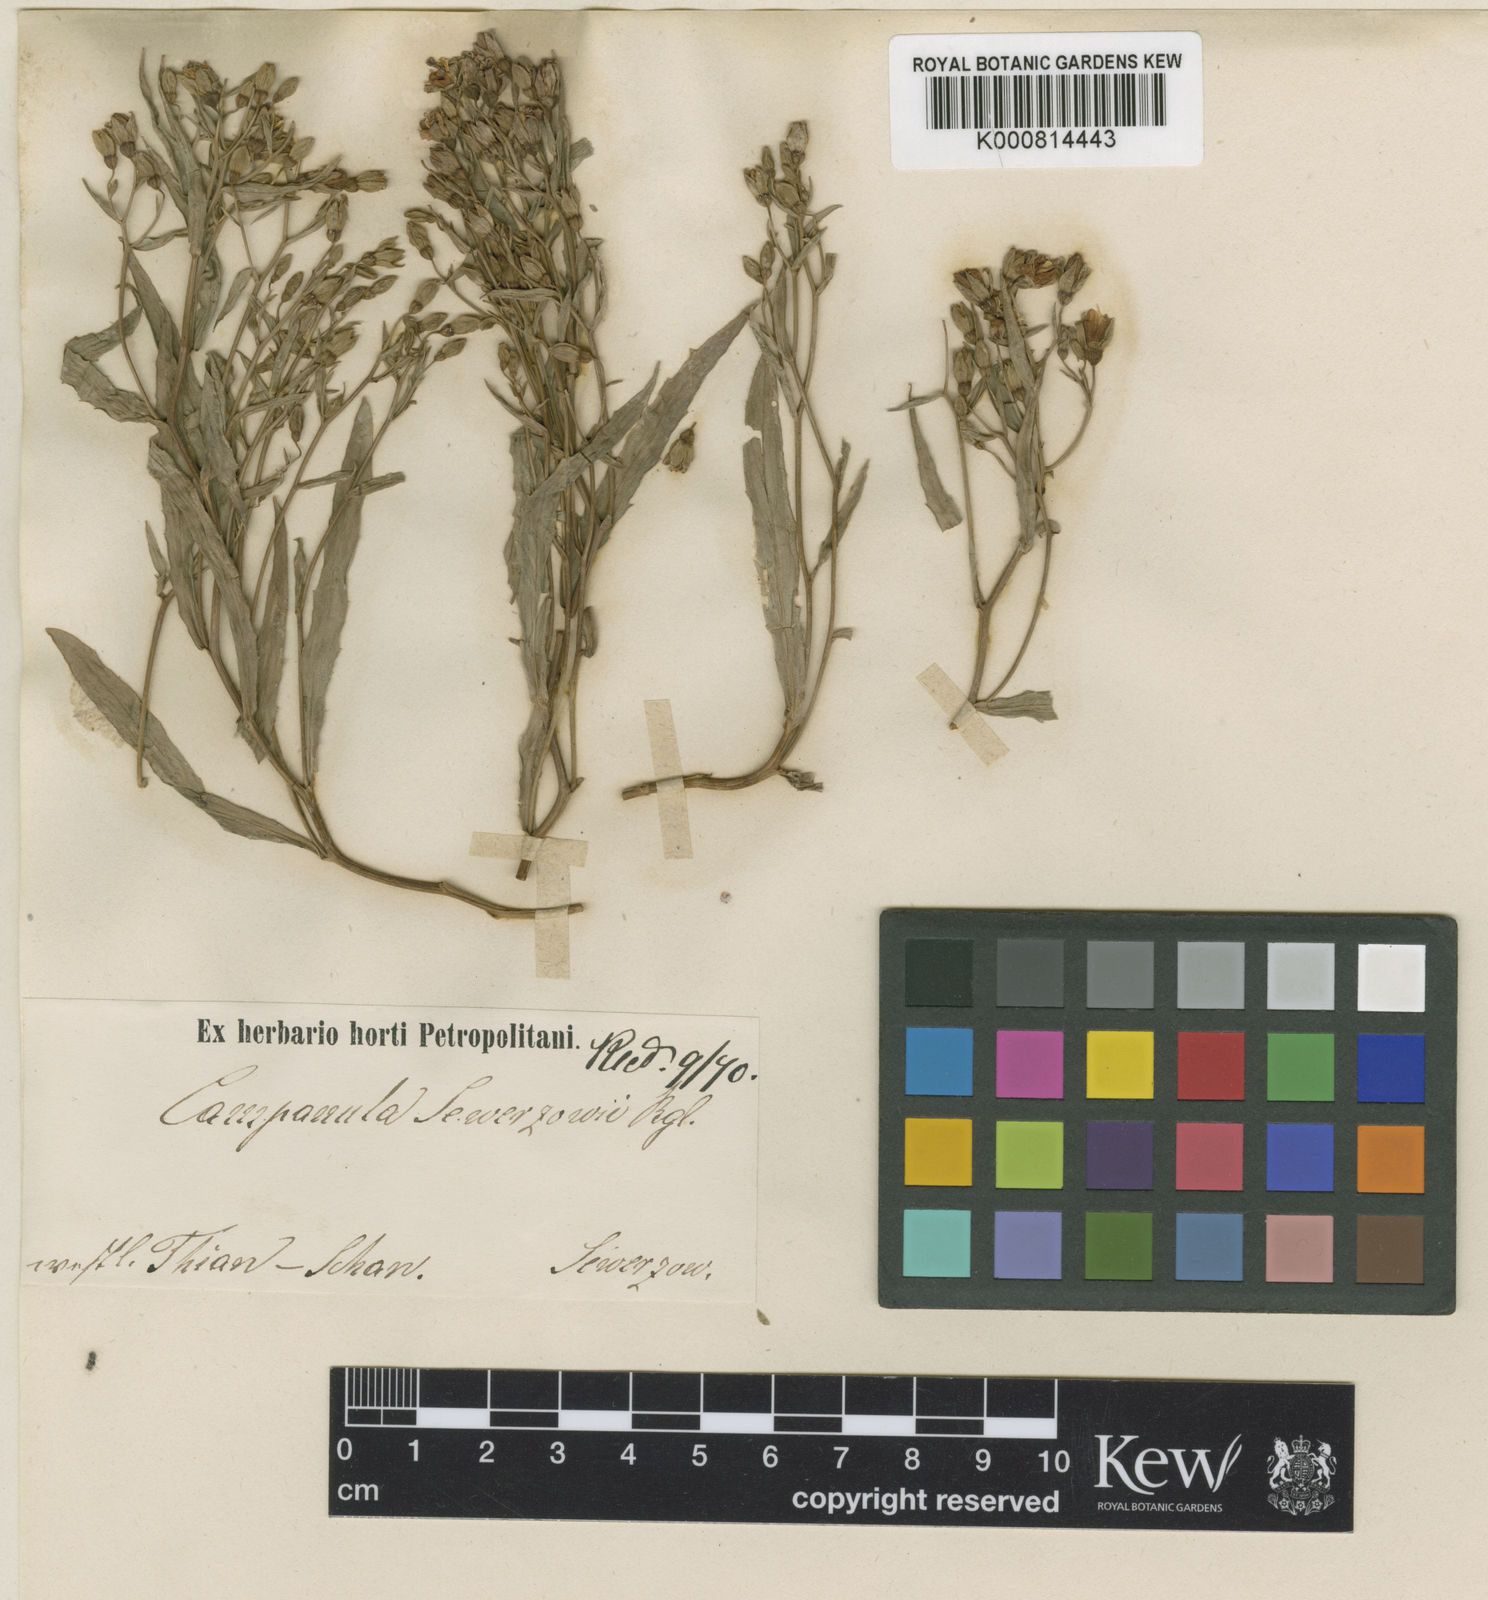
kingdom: Plantae
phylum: Tracheophyta
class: Magnoliopsida
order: Asterales
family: Campanulaceae
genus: Sergia
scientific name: Sergia sewerzowii
